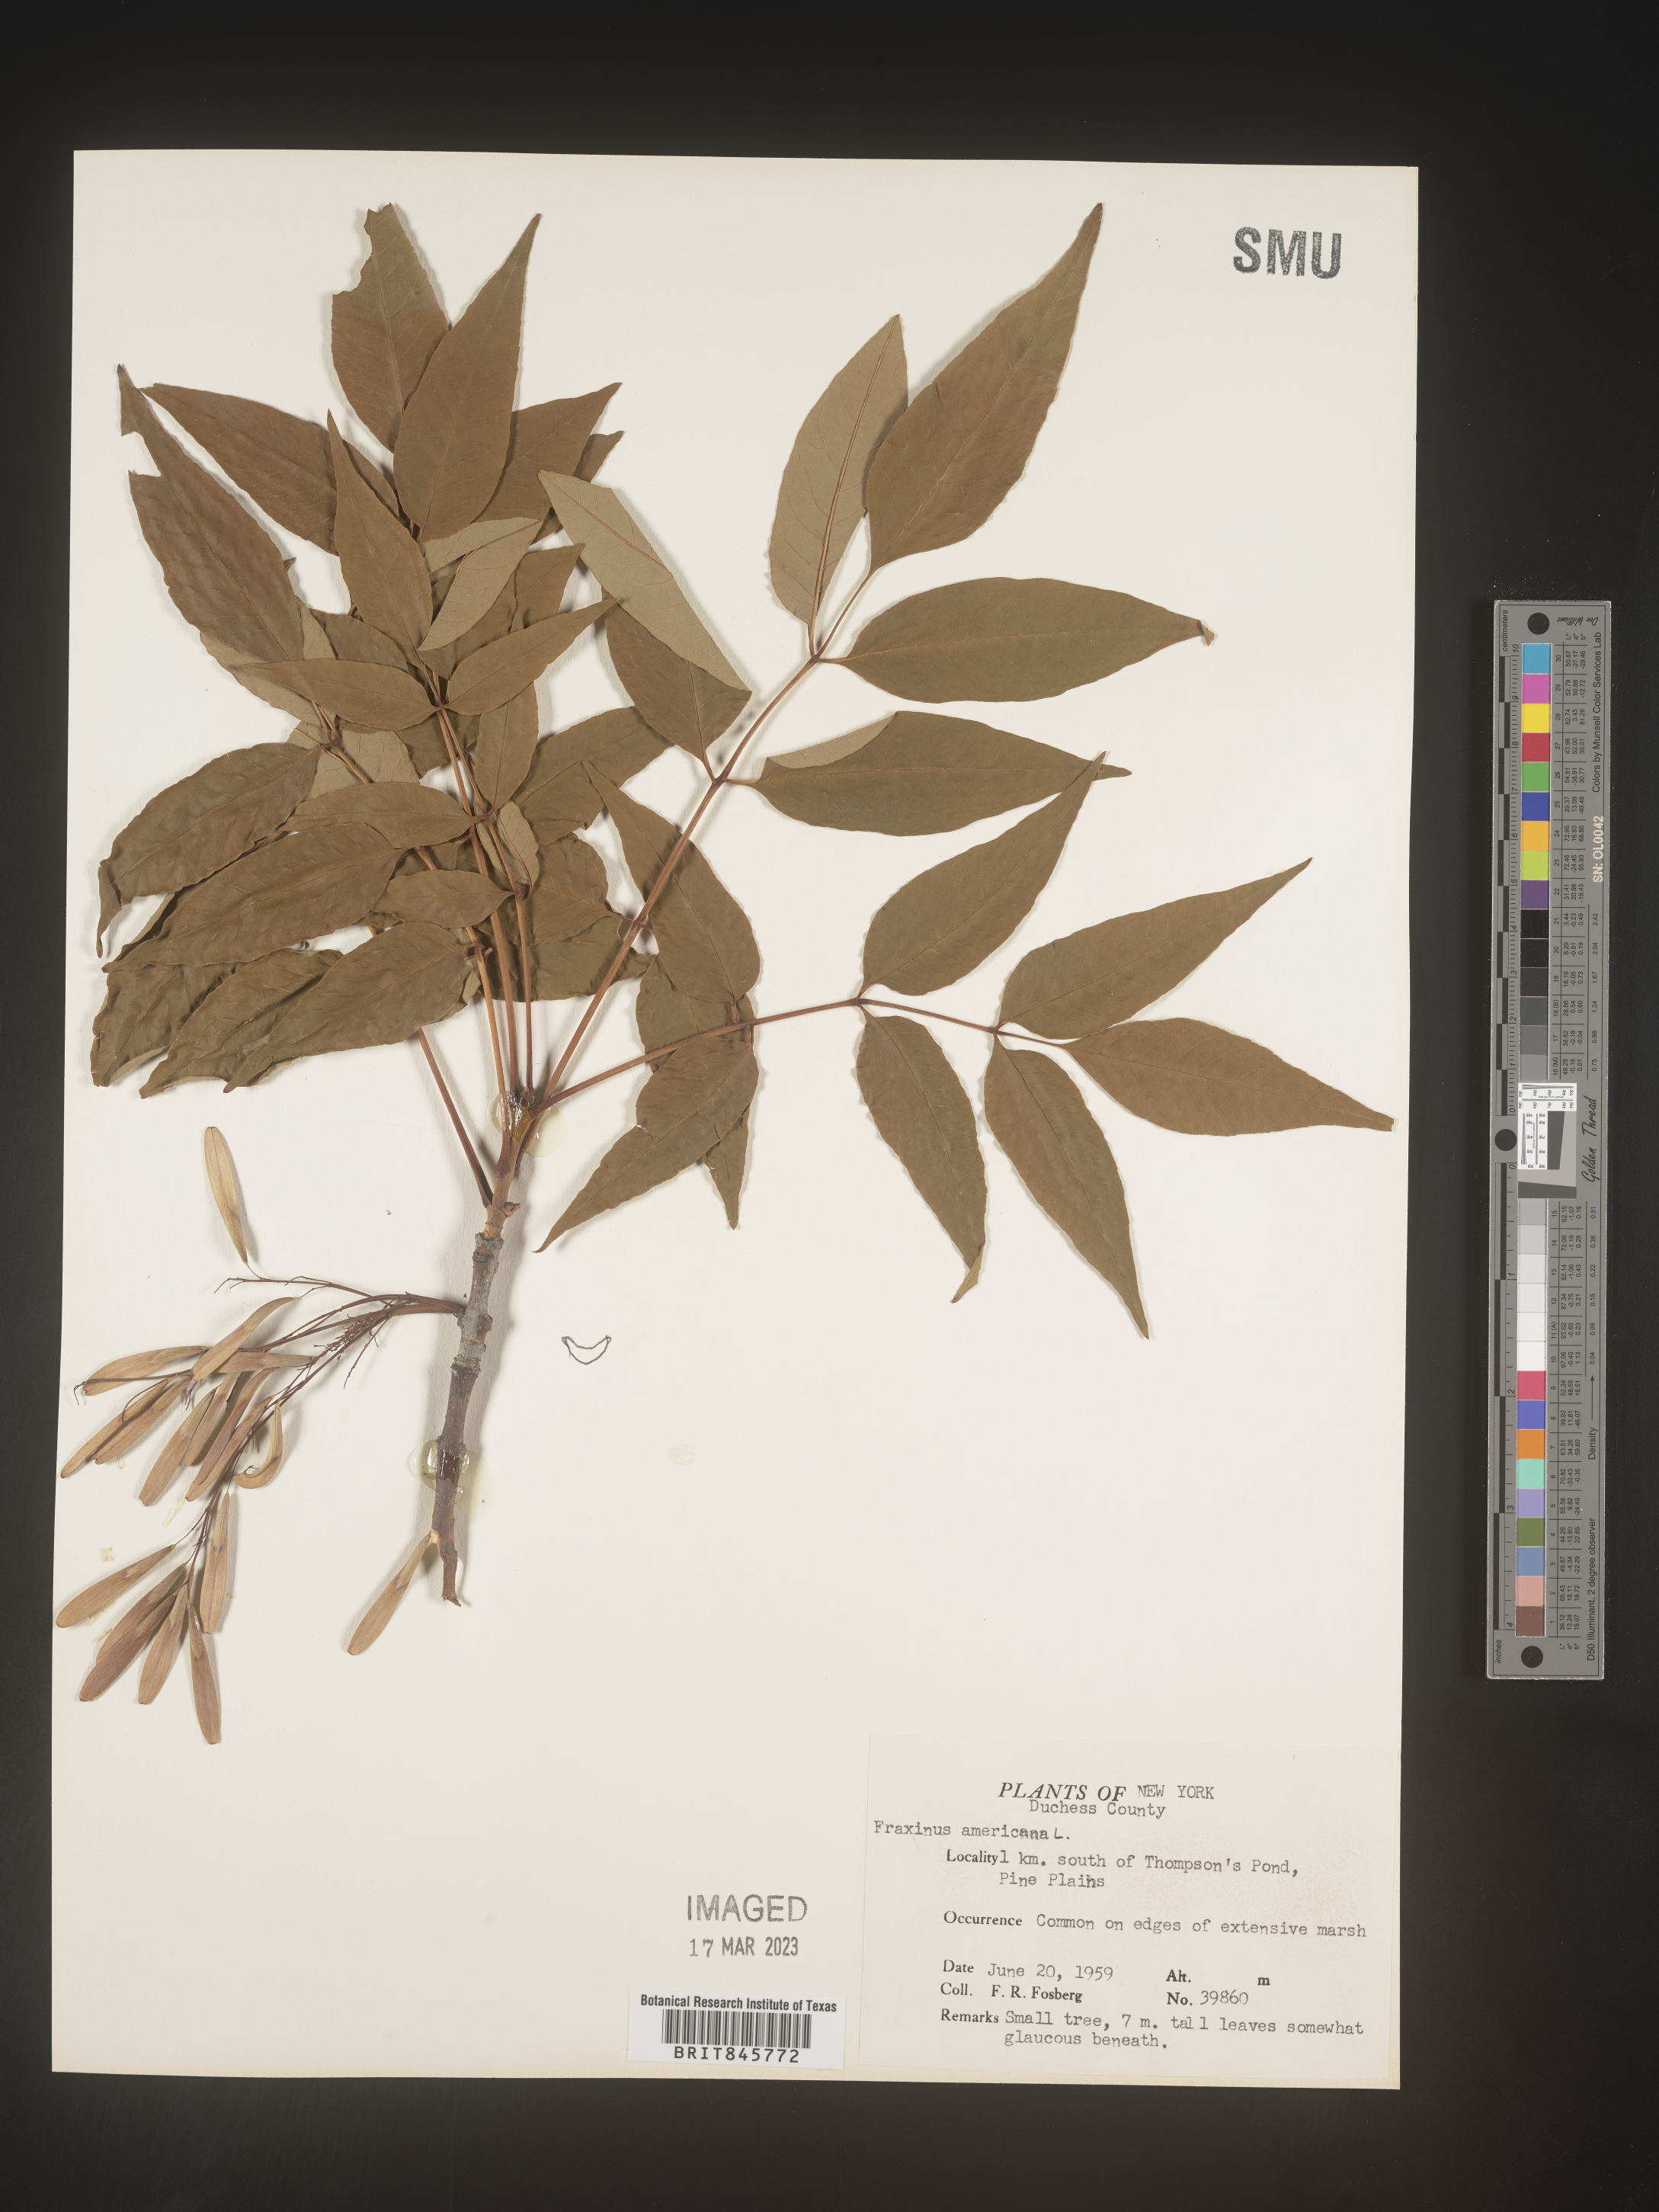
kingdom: Plantae
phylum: Tracheophyta
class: Magnoliopsida
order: Lamiales
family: Oleaceae
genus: Fraxinus
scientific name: Fraxinus americana
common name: White ash
